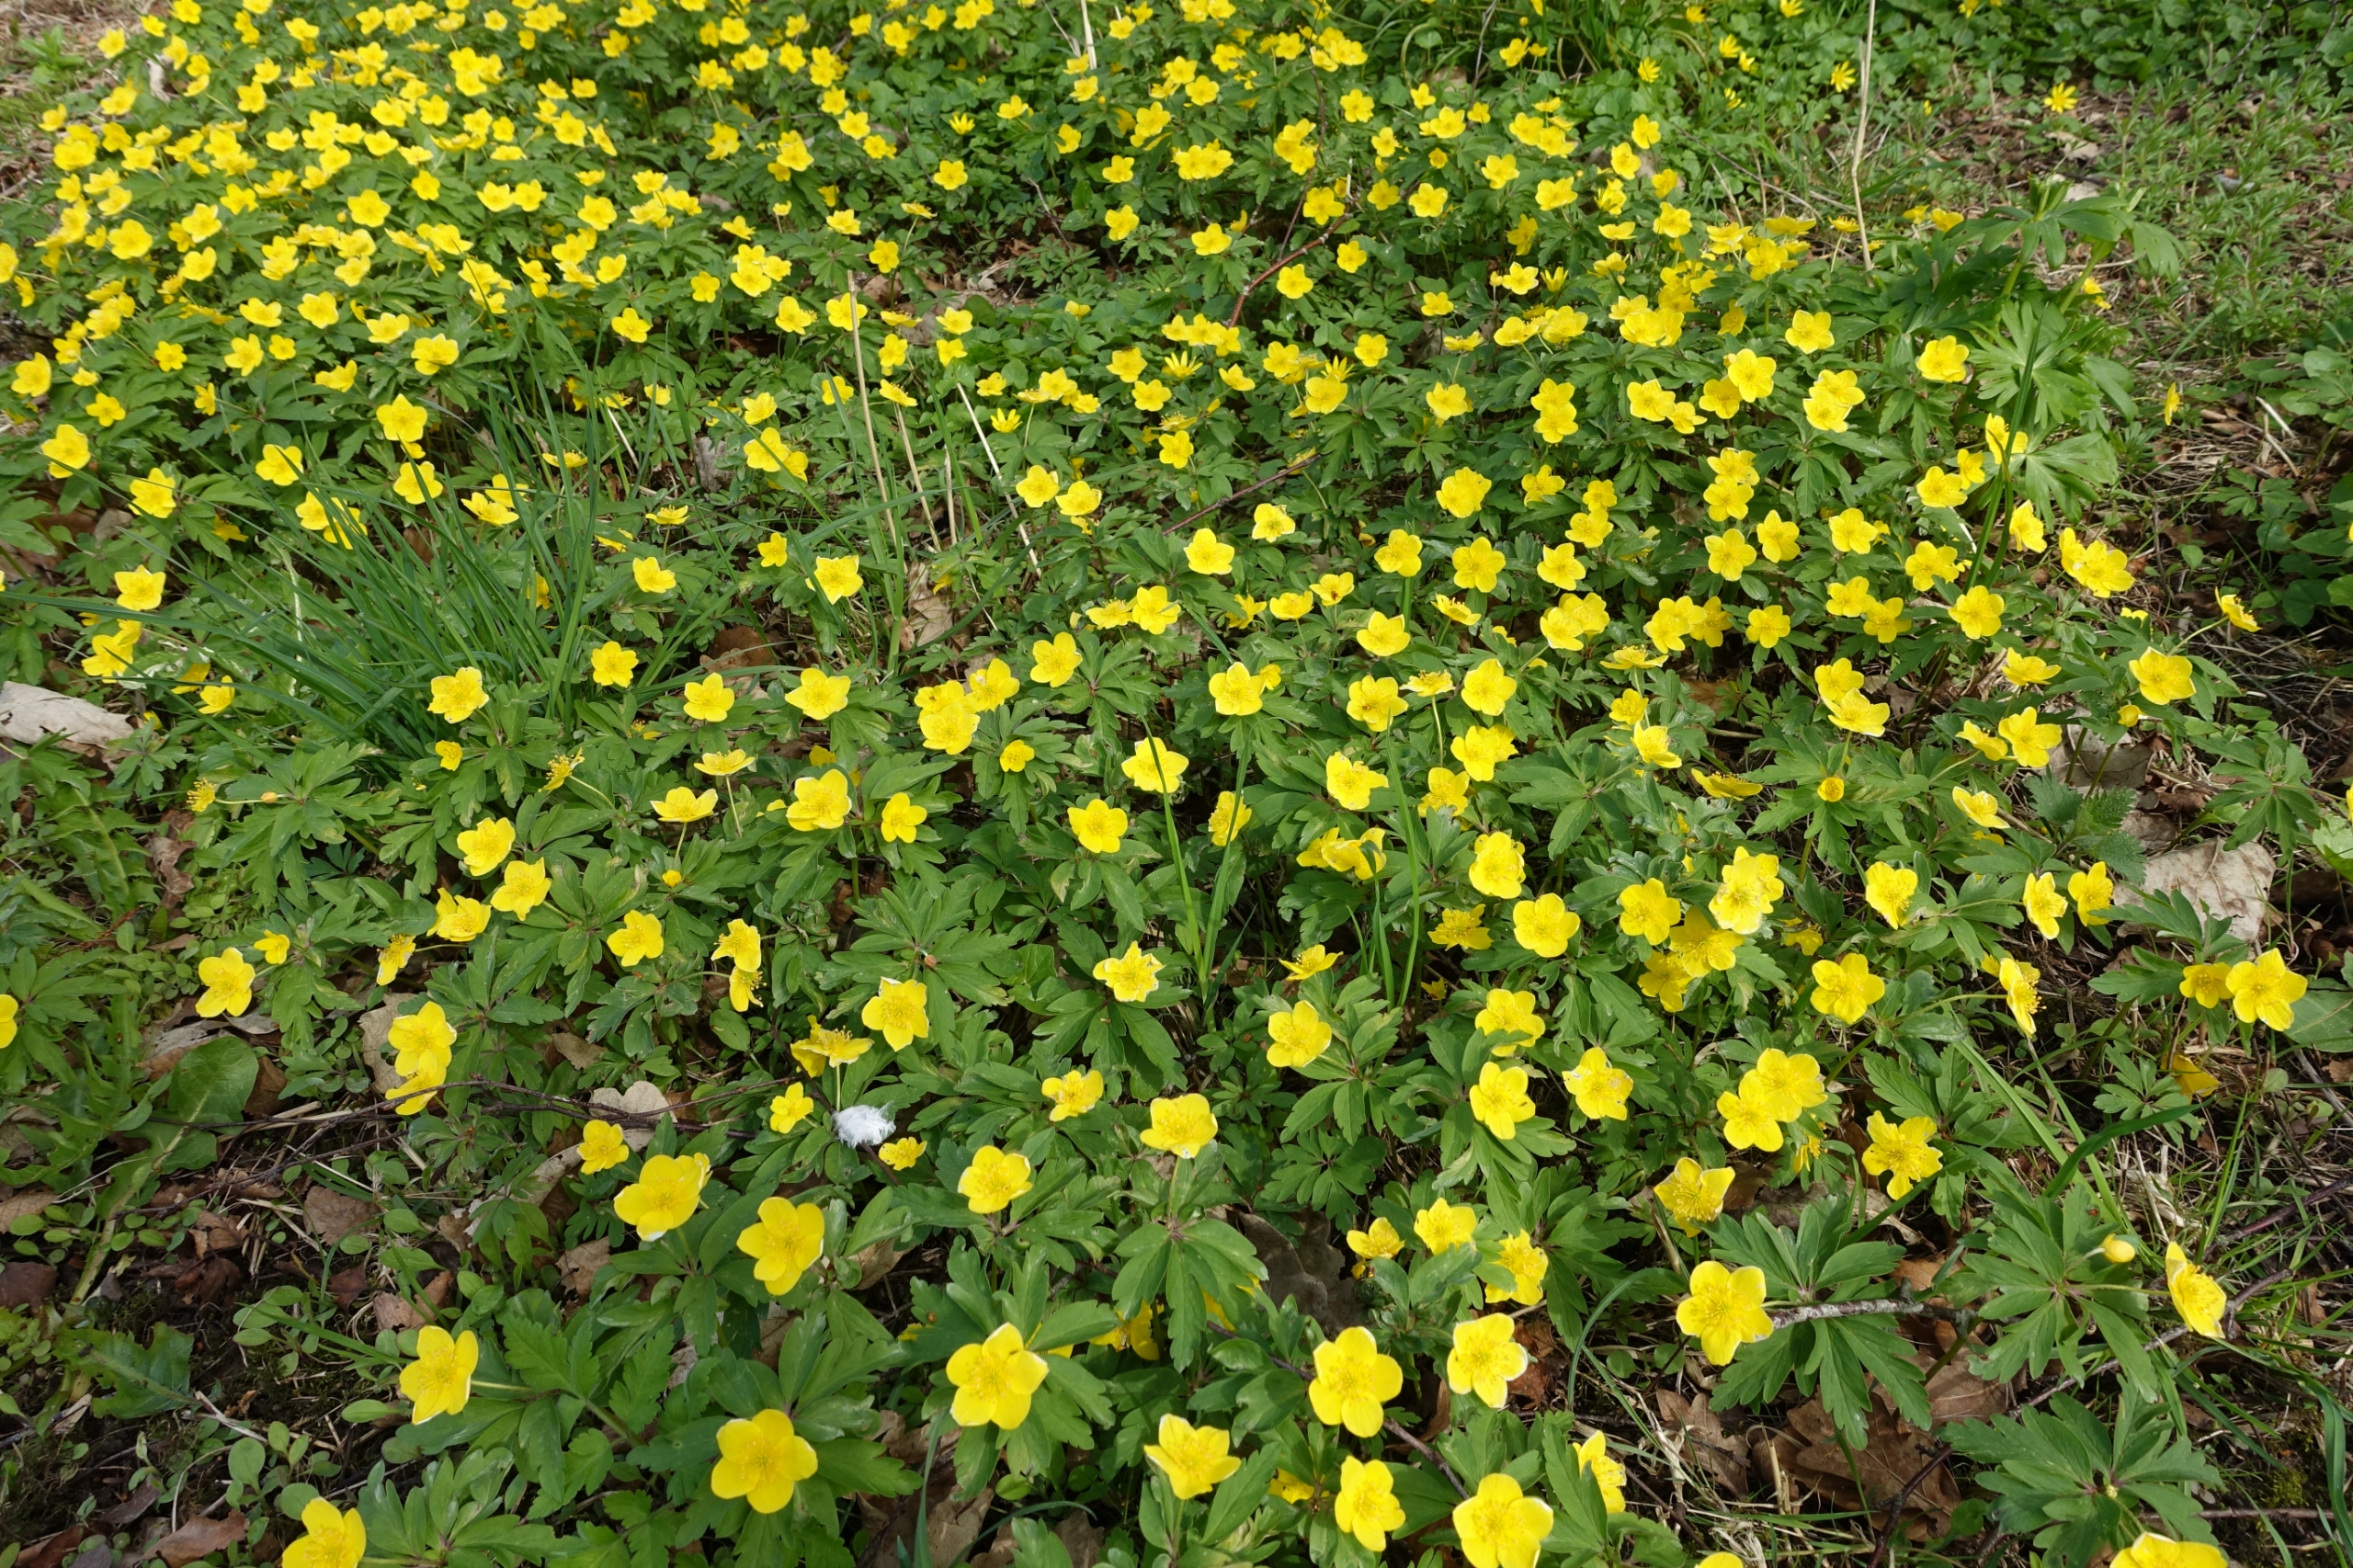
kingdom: Plantae
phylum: Tracheophyta
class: Magnoliopsida
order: Ranunculales
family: Ranunculaceae
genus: Anemone
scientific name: Anemone ranunculoides
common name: Gul anemone
